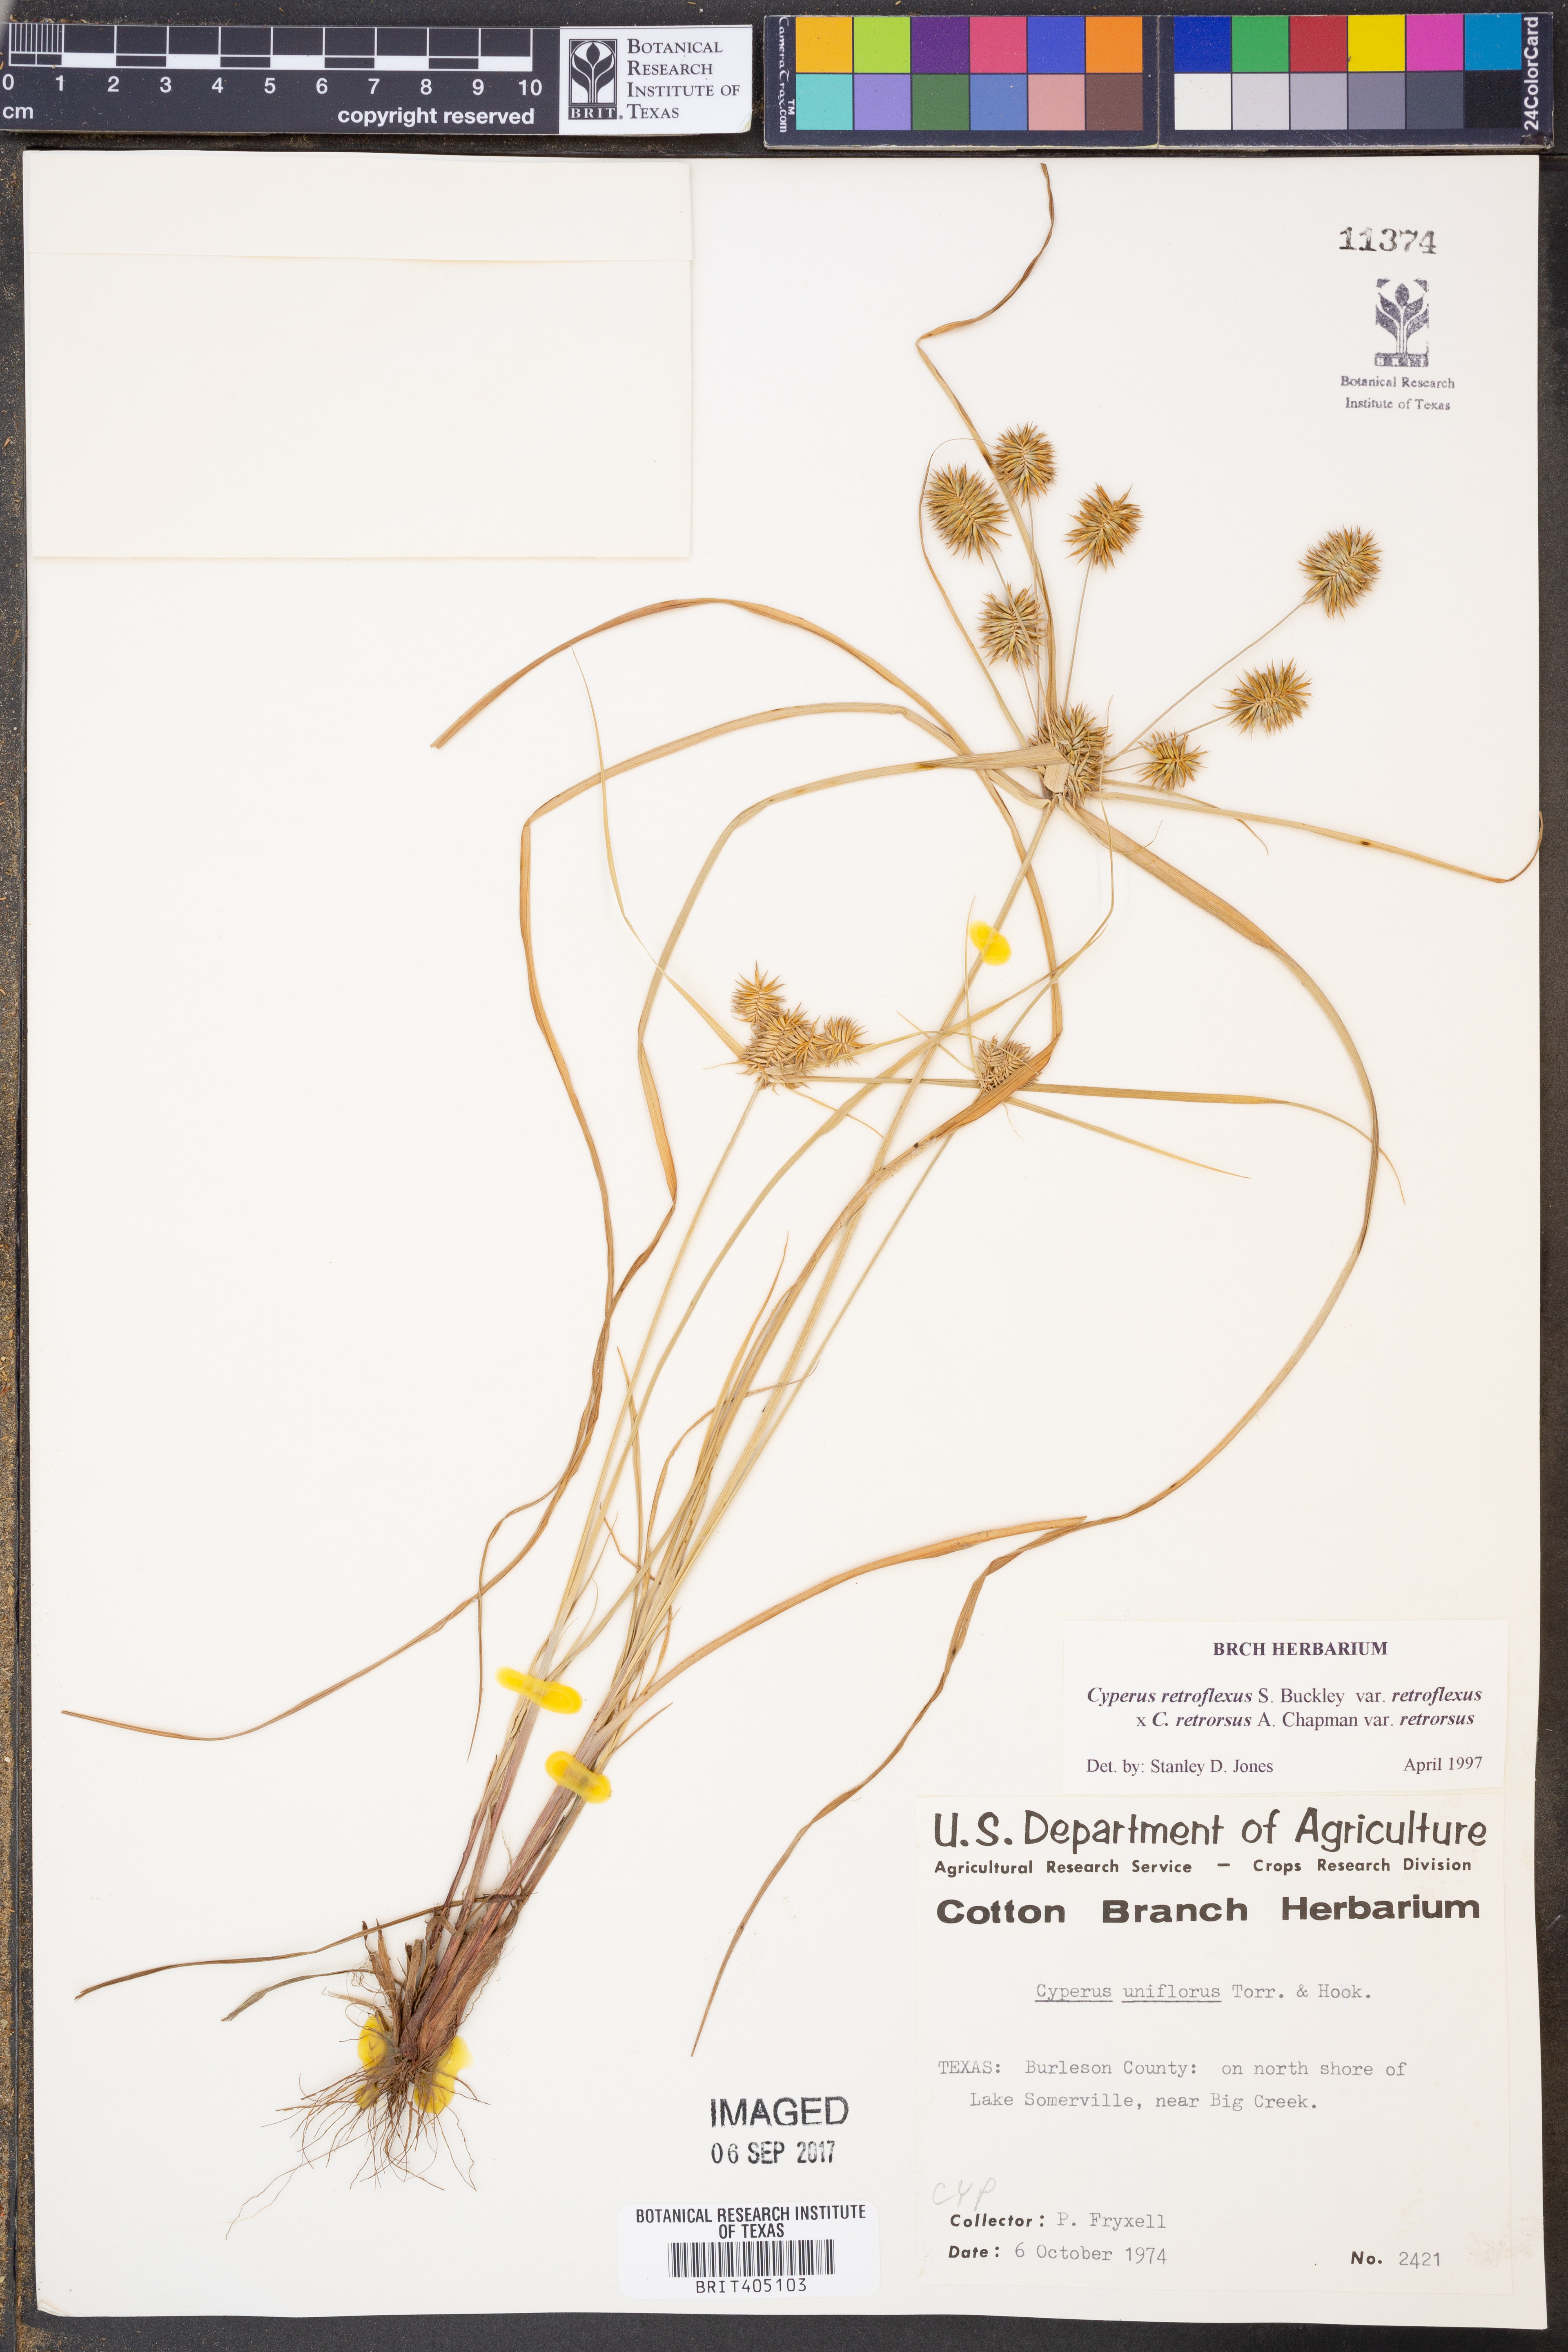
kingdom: Plantae
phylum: Tracheophyta
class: Liliopsida
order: Poales
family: Cyperaceae
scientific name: Cyperaceae
